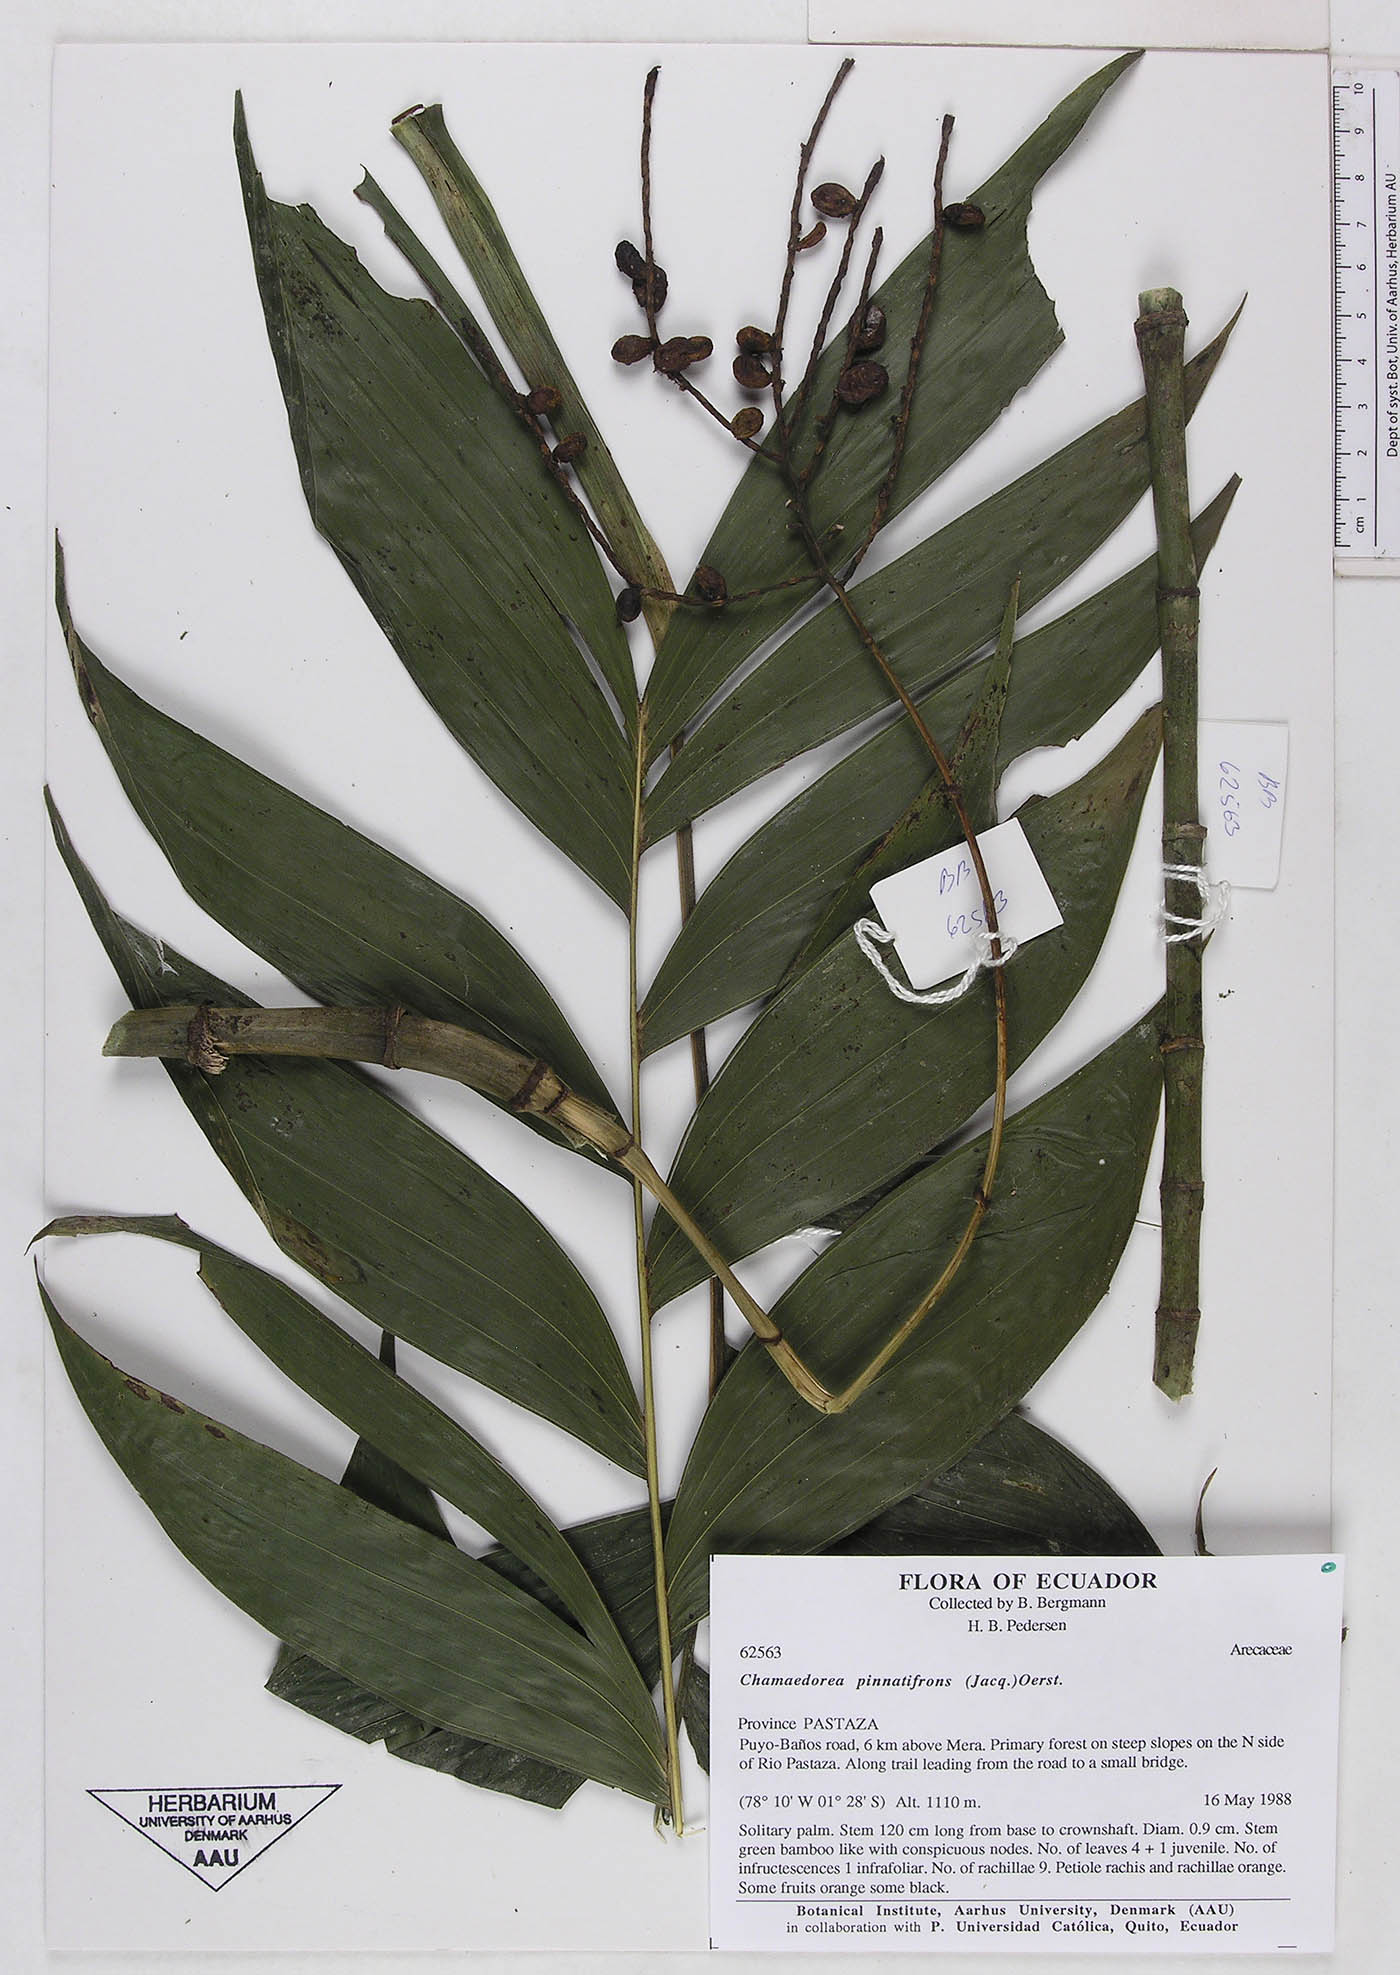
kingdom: Plantae
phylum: Tracheophyta
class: Liliopsida
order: Arecales
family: Arecaceae
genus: Chamaedorea
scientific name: Chamaedorea pinnatifrons
